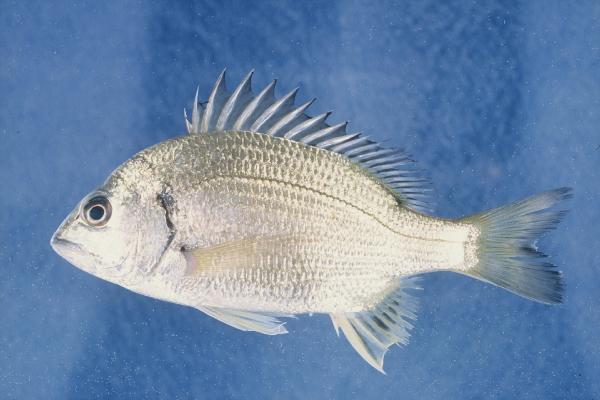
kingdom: Animalia
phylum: Chordata
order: Perciformes
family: Sparidae
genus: Acanthopagrus
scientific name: Acanthopagrus berda
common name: Picnic seabream
